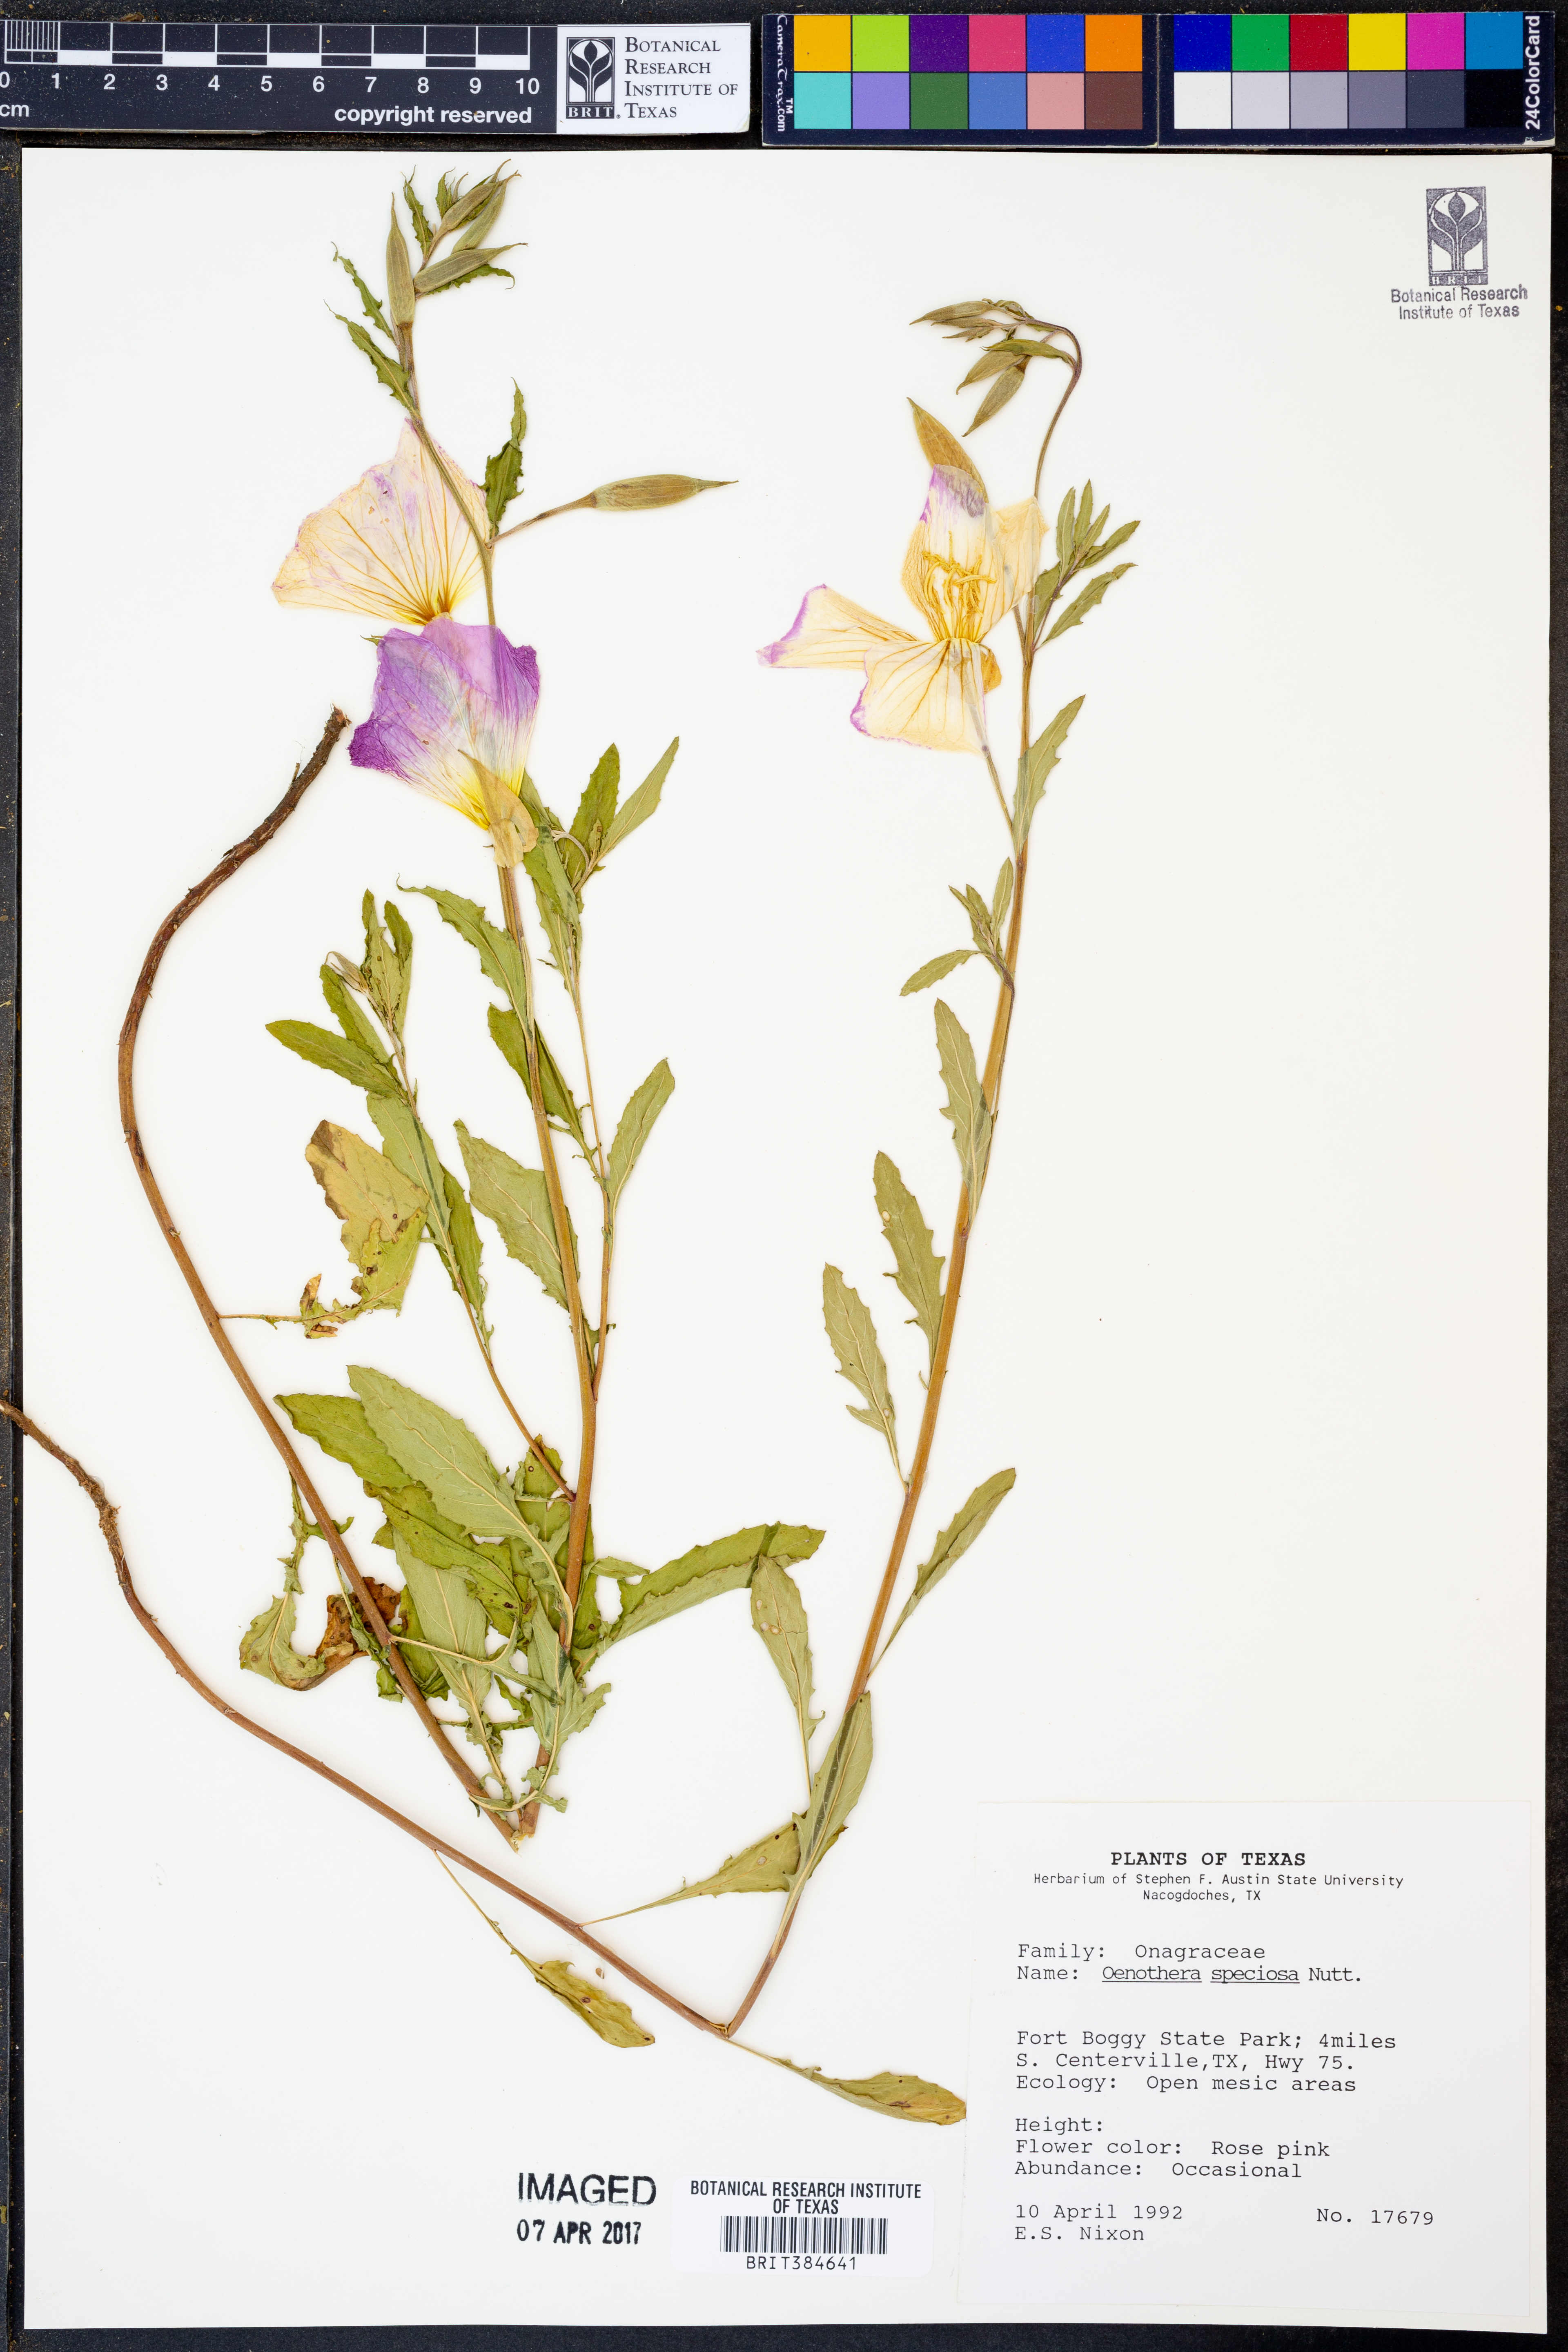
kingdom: Plantae
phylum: Tracheophyta
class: Magnoliopsida
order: Myrtales
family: Onagraceae
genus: Oenothera
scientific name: Oenothera speciosa
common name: White evening-primrose
